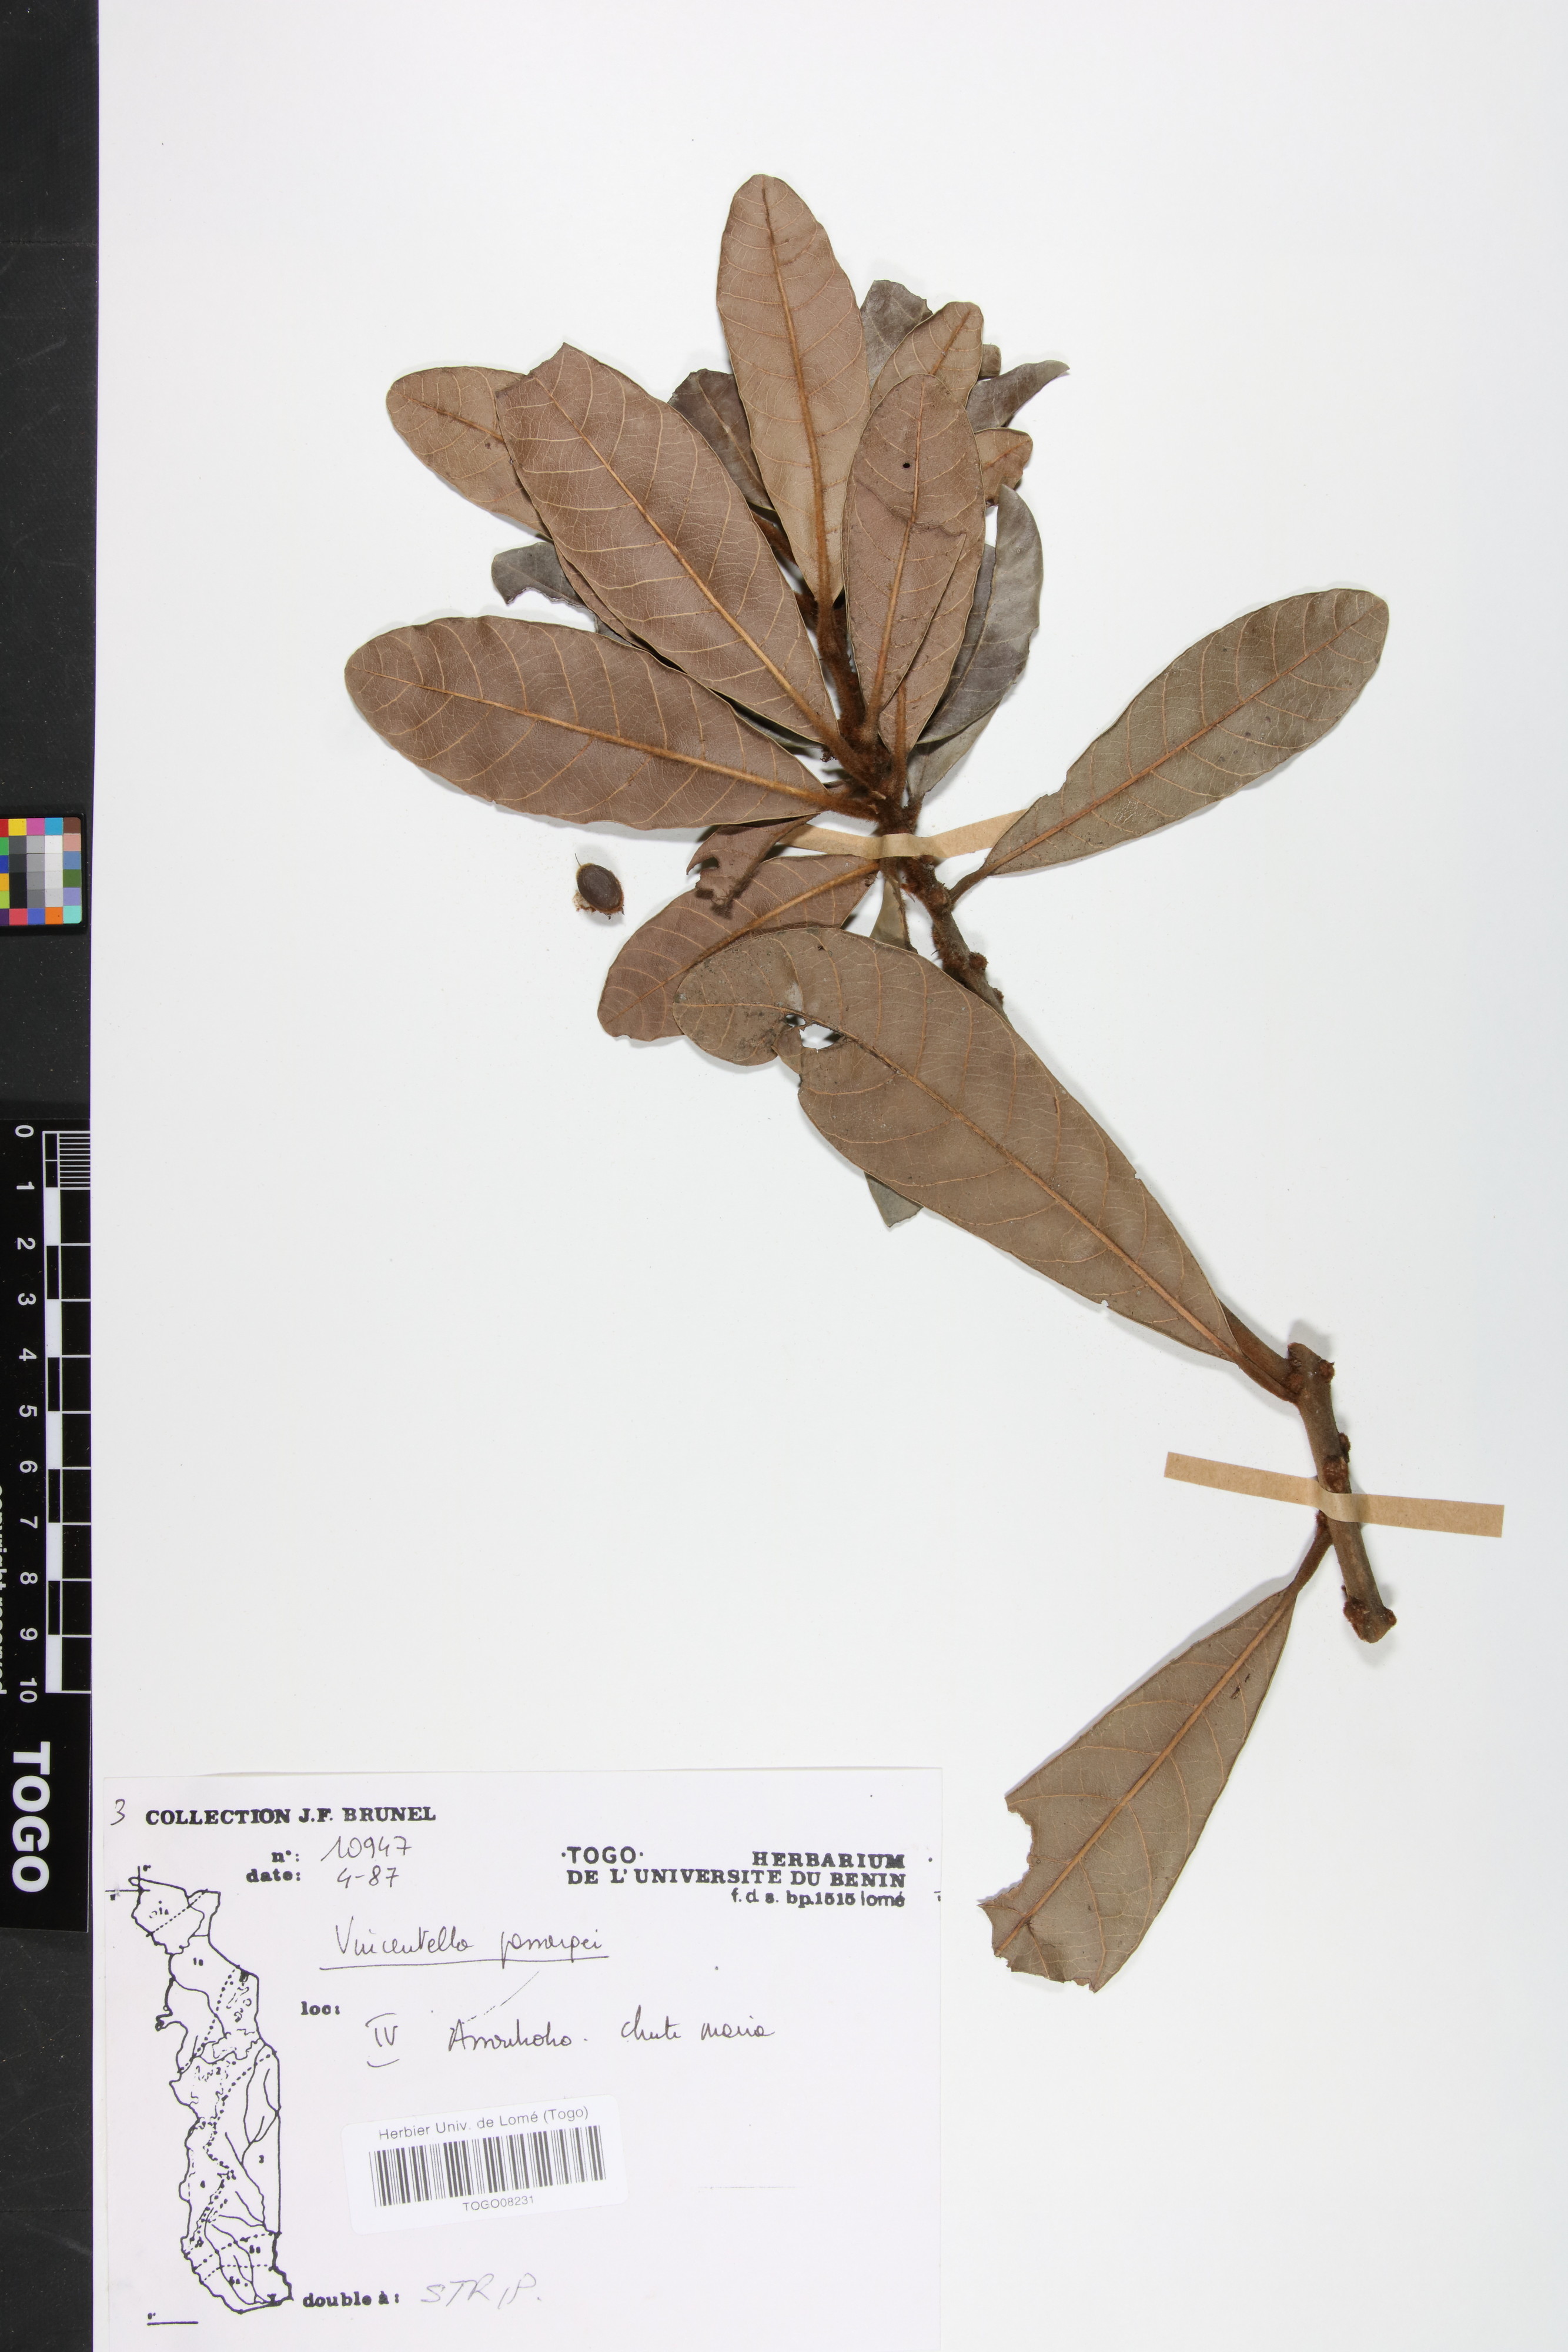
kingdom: Plantae
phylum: Tracheophyta
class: Magnoliopsida
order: Ericales
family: Sapotaceae
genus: Synsepalum
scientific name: Synsepalum passargei
